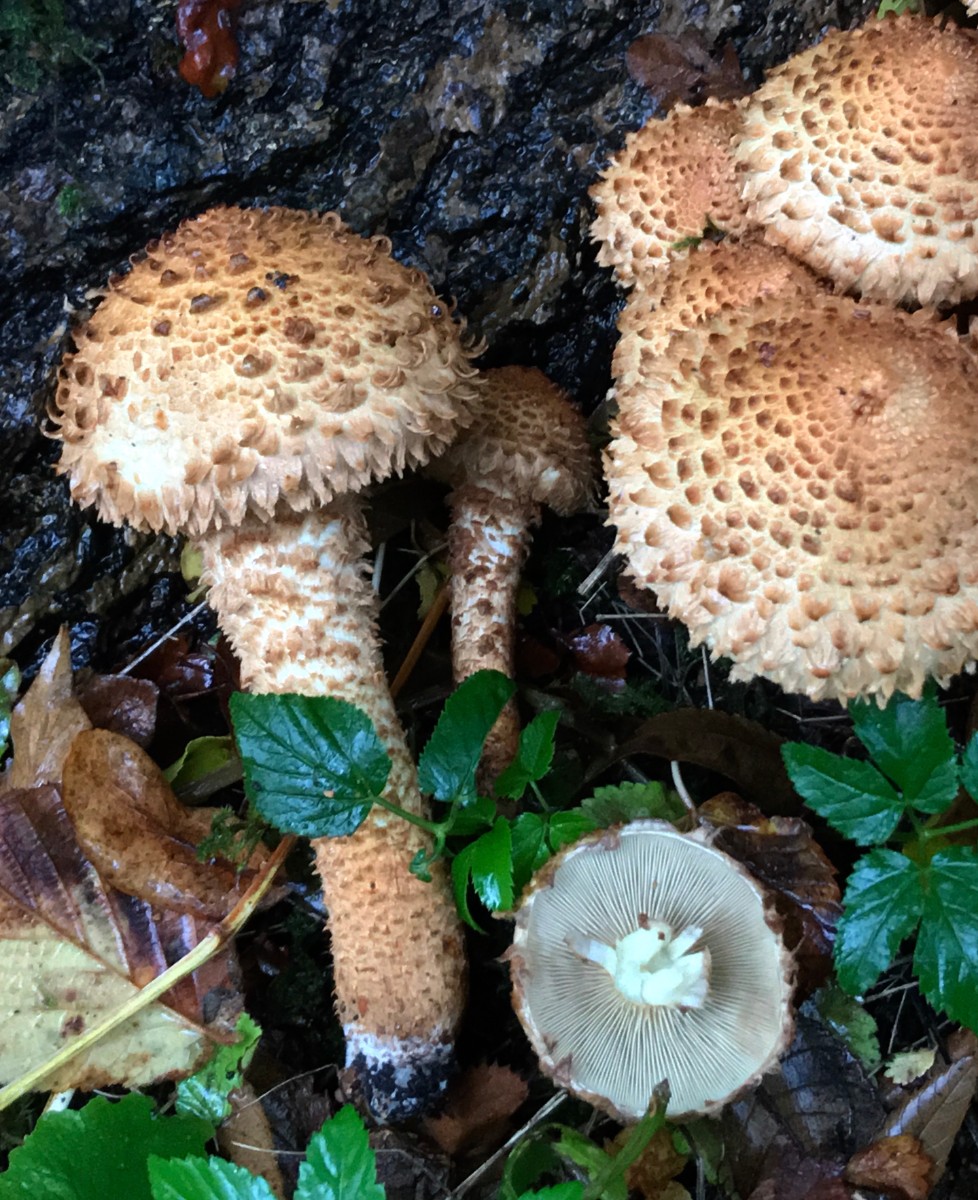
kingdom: Fungi
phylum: Basidiomycota
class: Agaricomycetes
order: Agaricales
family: Strophariaceae
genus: Pholiota
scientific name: Pholiota squarrosa
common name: krumskællet skælhat
